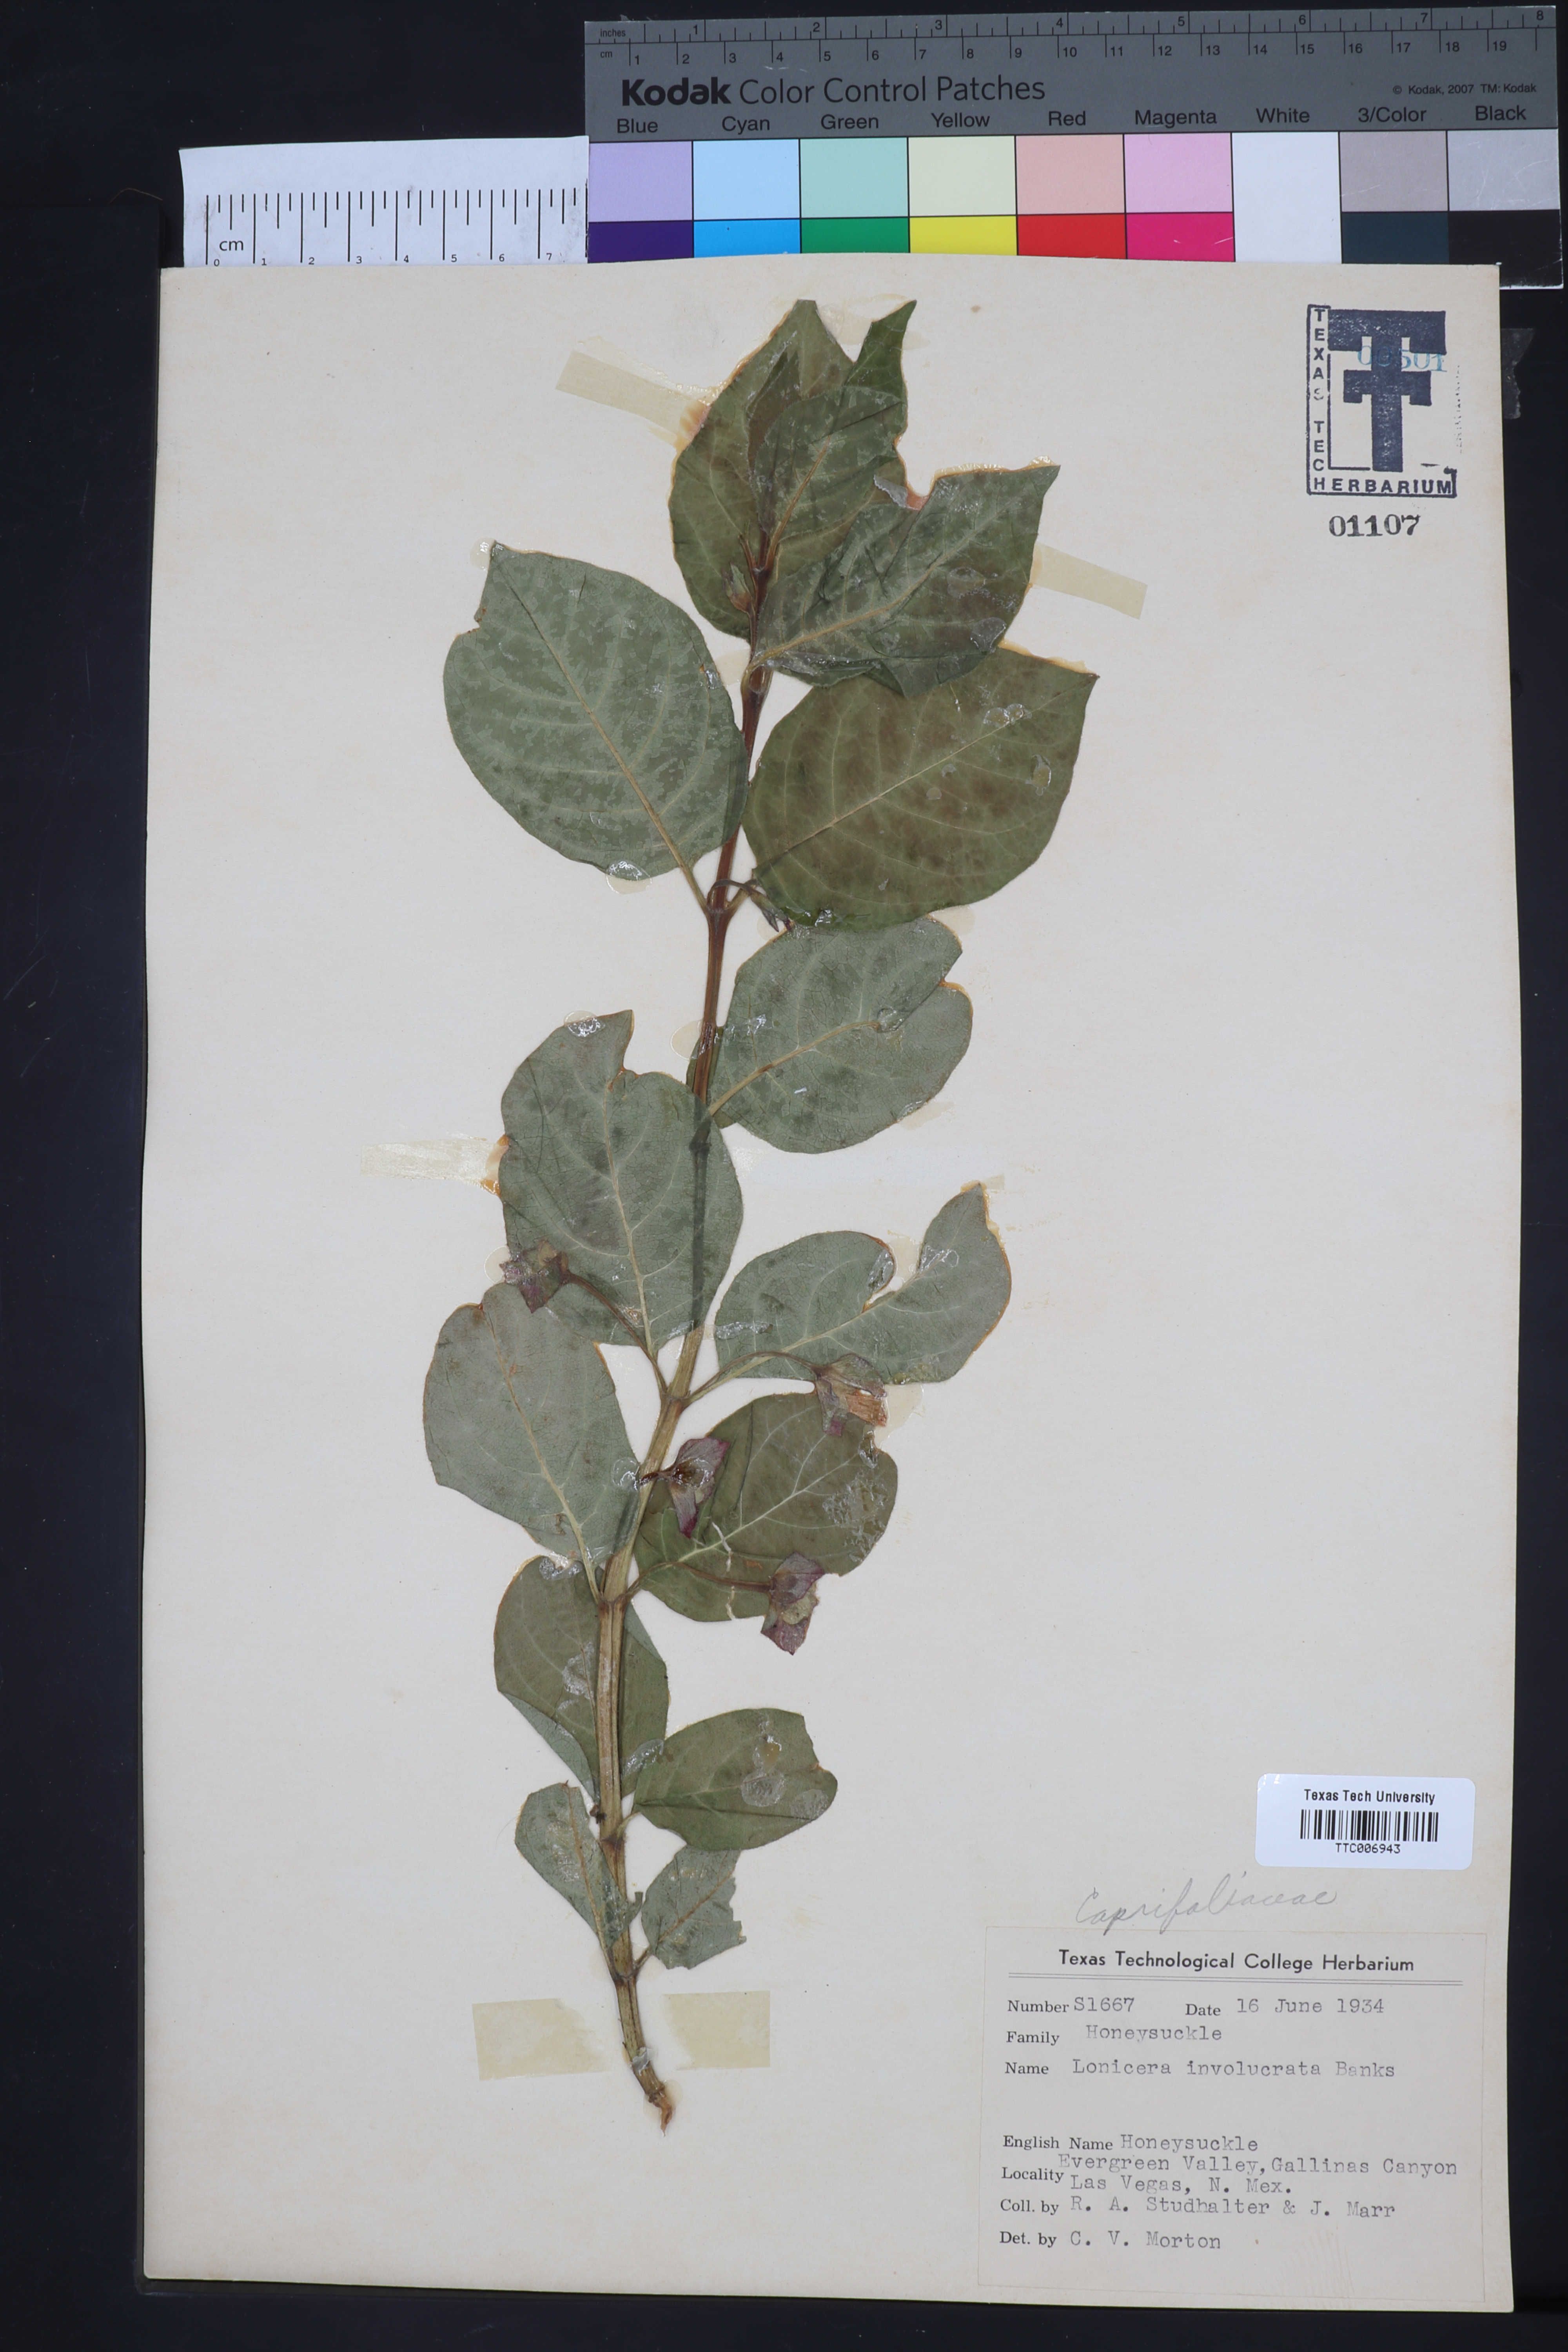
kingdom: Plantae
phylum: Tracheophyta
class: Magnoliopsida
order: Dipsacales
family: Caprifoliaceae
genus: Lonicera
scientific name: Lonicera involucrata
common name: Californian honeysuckle
